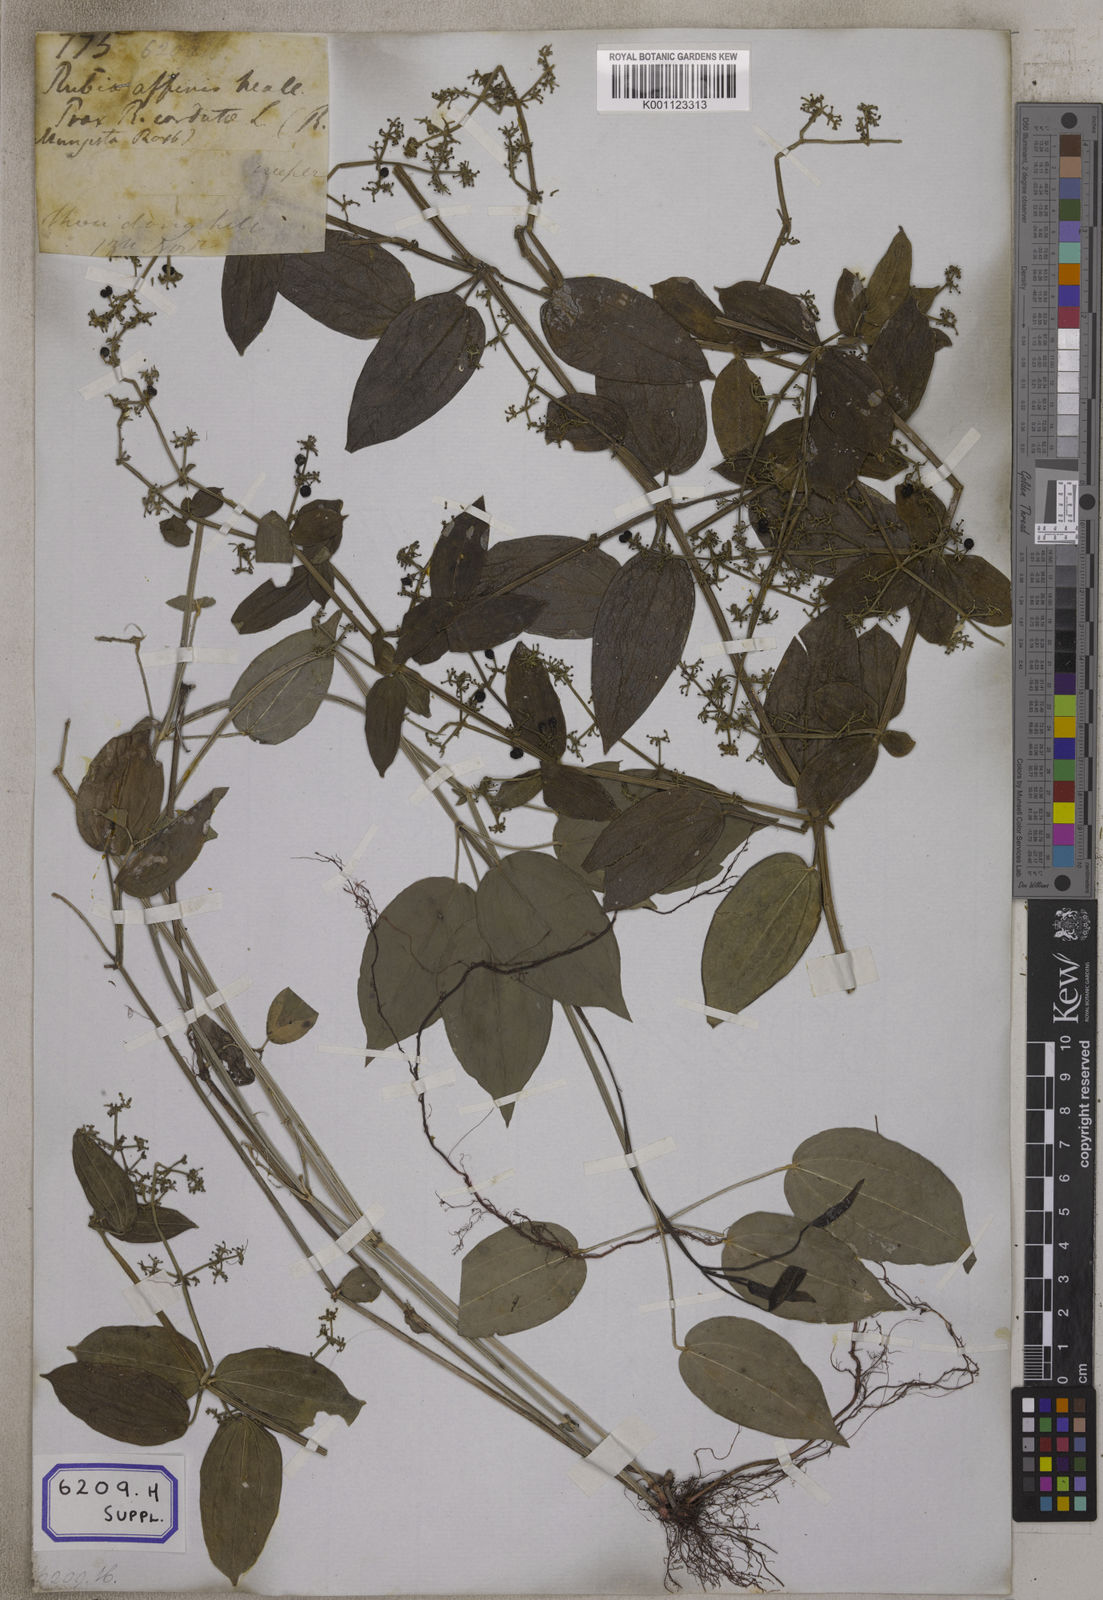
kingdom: Plantae
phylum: Tracheophyta
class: Magnoliopsida
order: Gentianales
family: Rubiaceae
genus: Rubia
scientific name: Rubia cordifolia
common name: Indian madder
